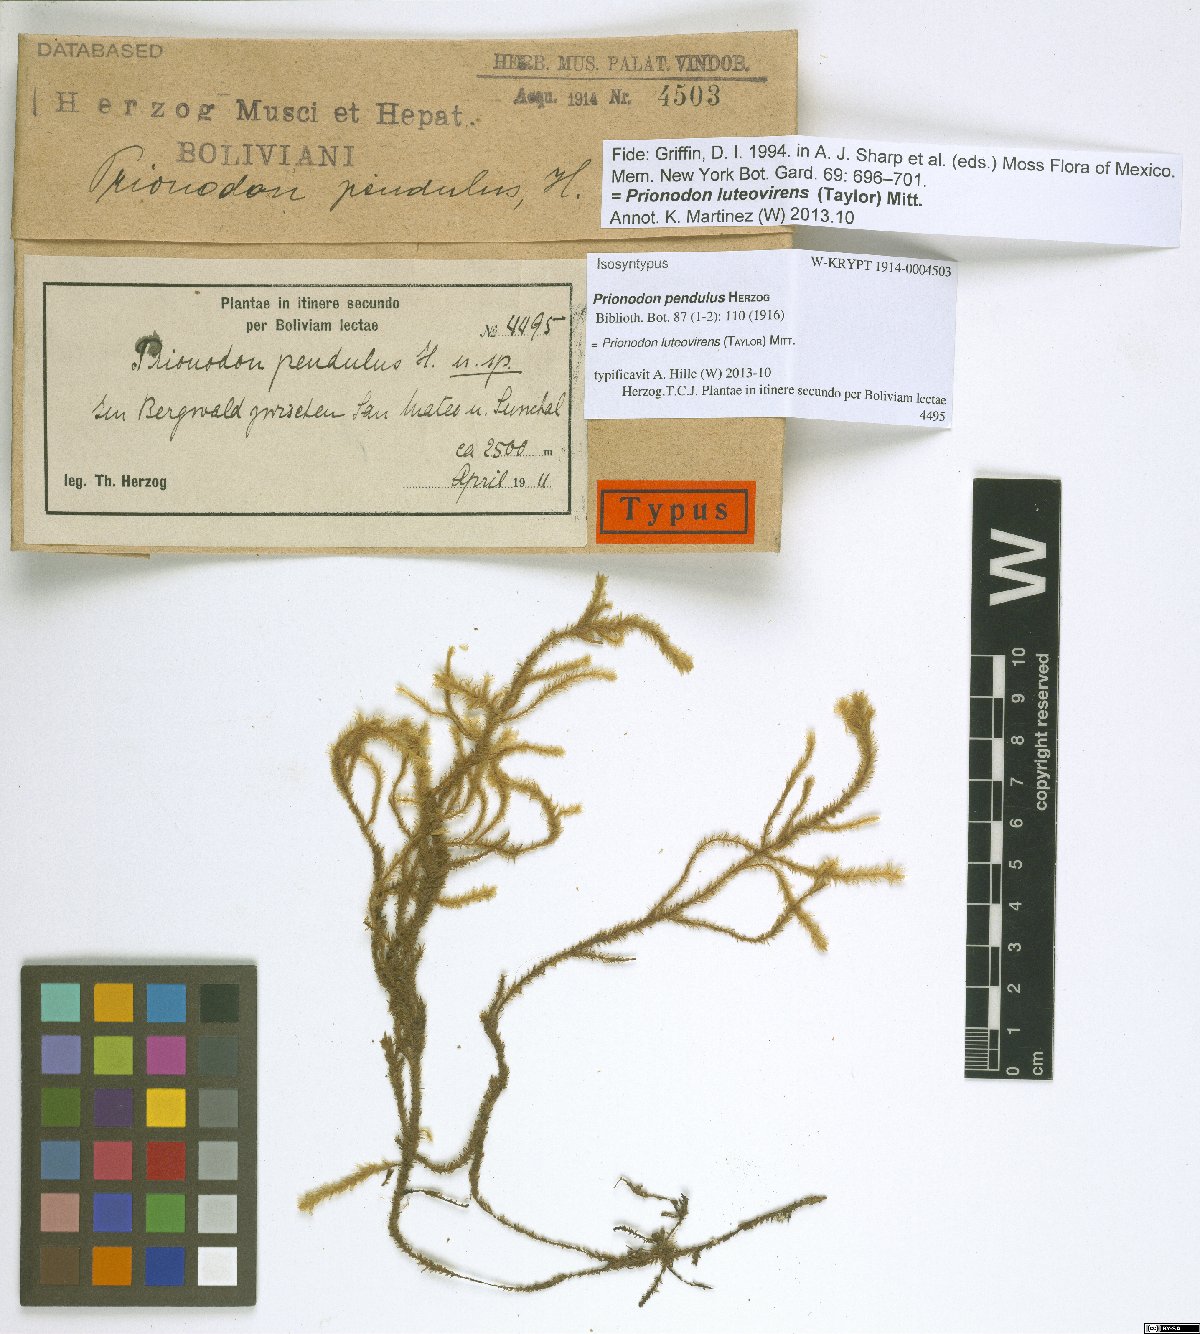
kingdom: Plantae
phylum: Bryophyta
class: Bryopsida
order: Hypnales
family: Prionodontaceae
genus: Prionodon
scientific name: Prionodon luteovirens
